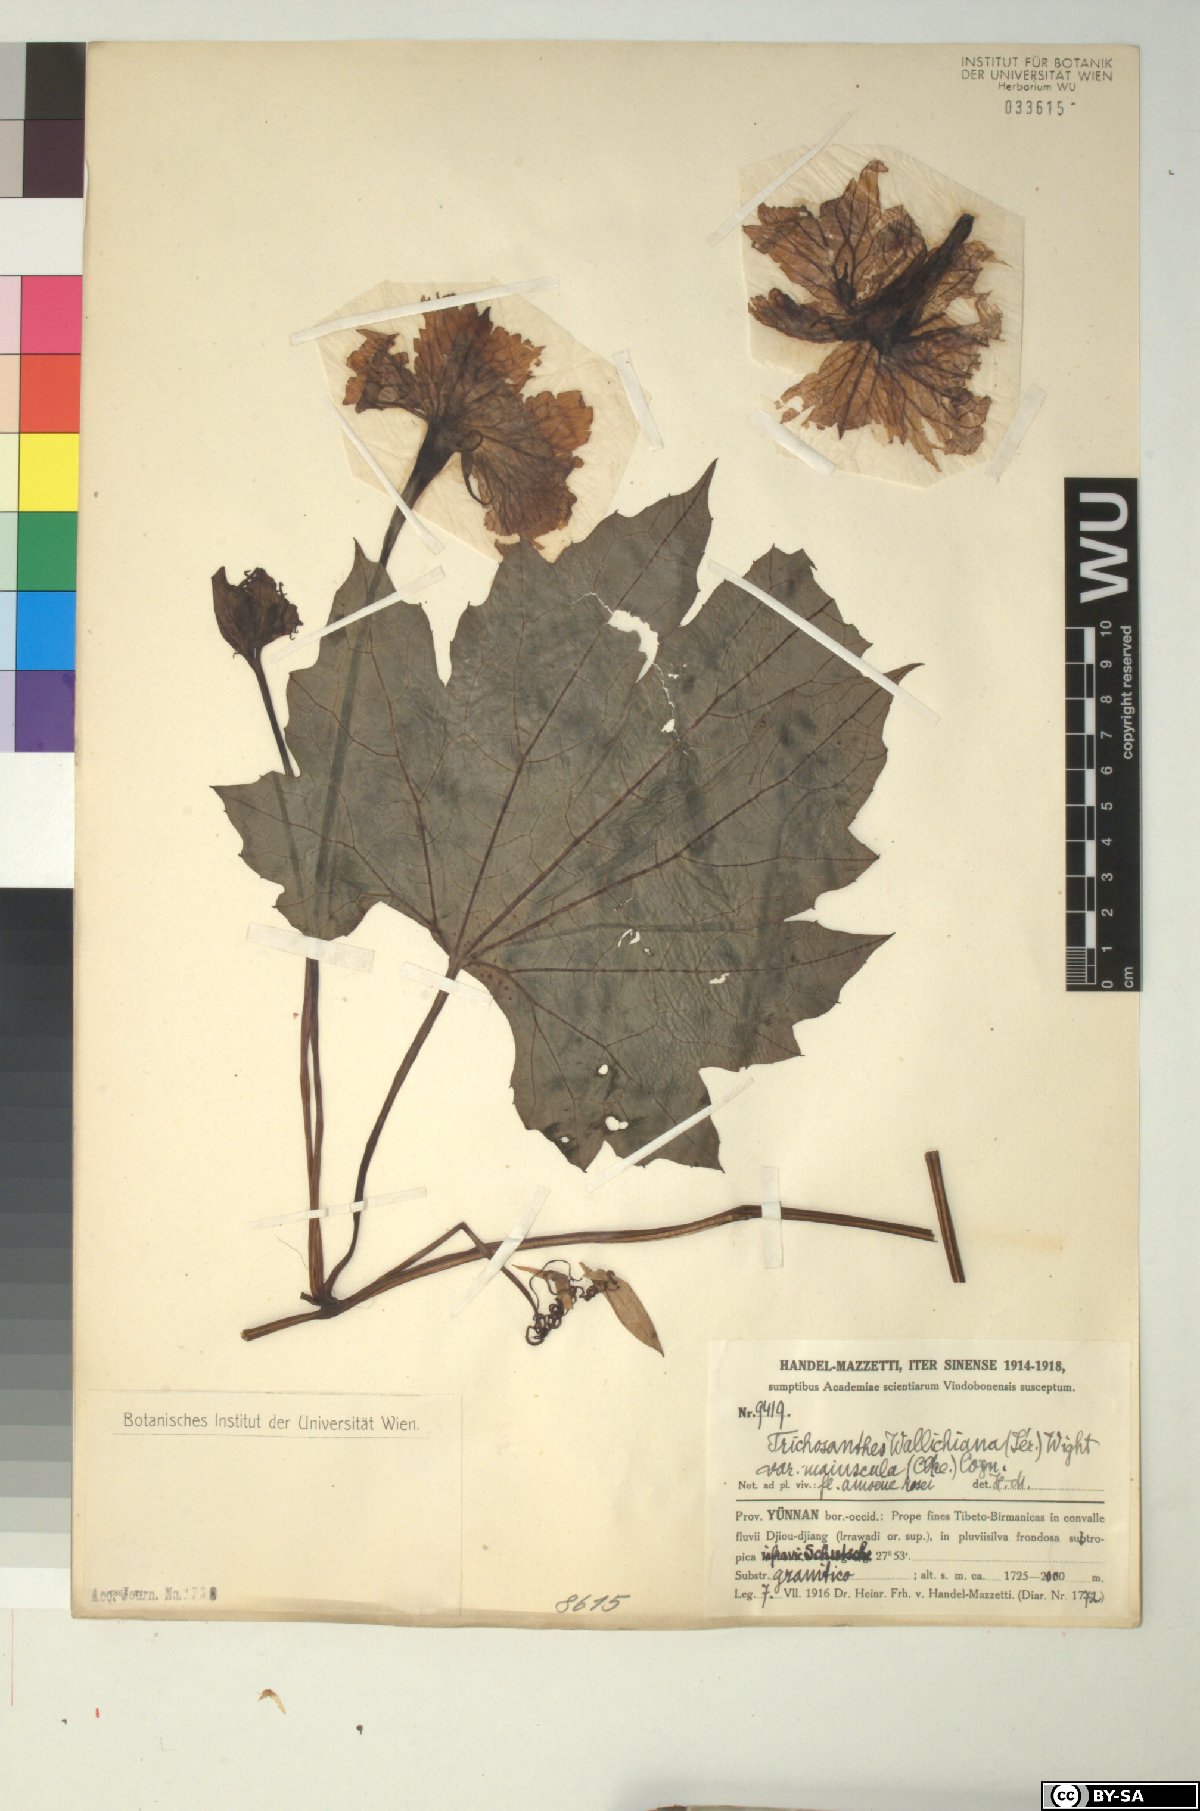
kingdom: Plantae
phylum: Tracheophyta
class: Magnoliopsida
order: Cucurbitales
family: Cucurbitaceae
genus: Trichosanthes
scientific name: Trichosanthes wallichiana
